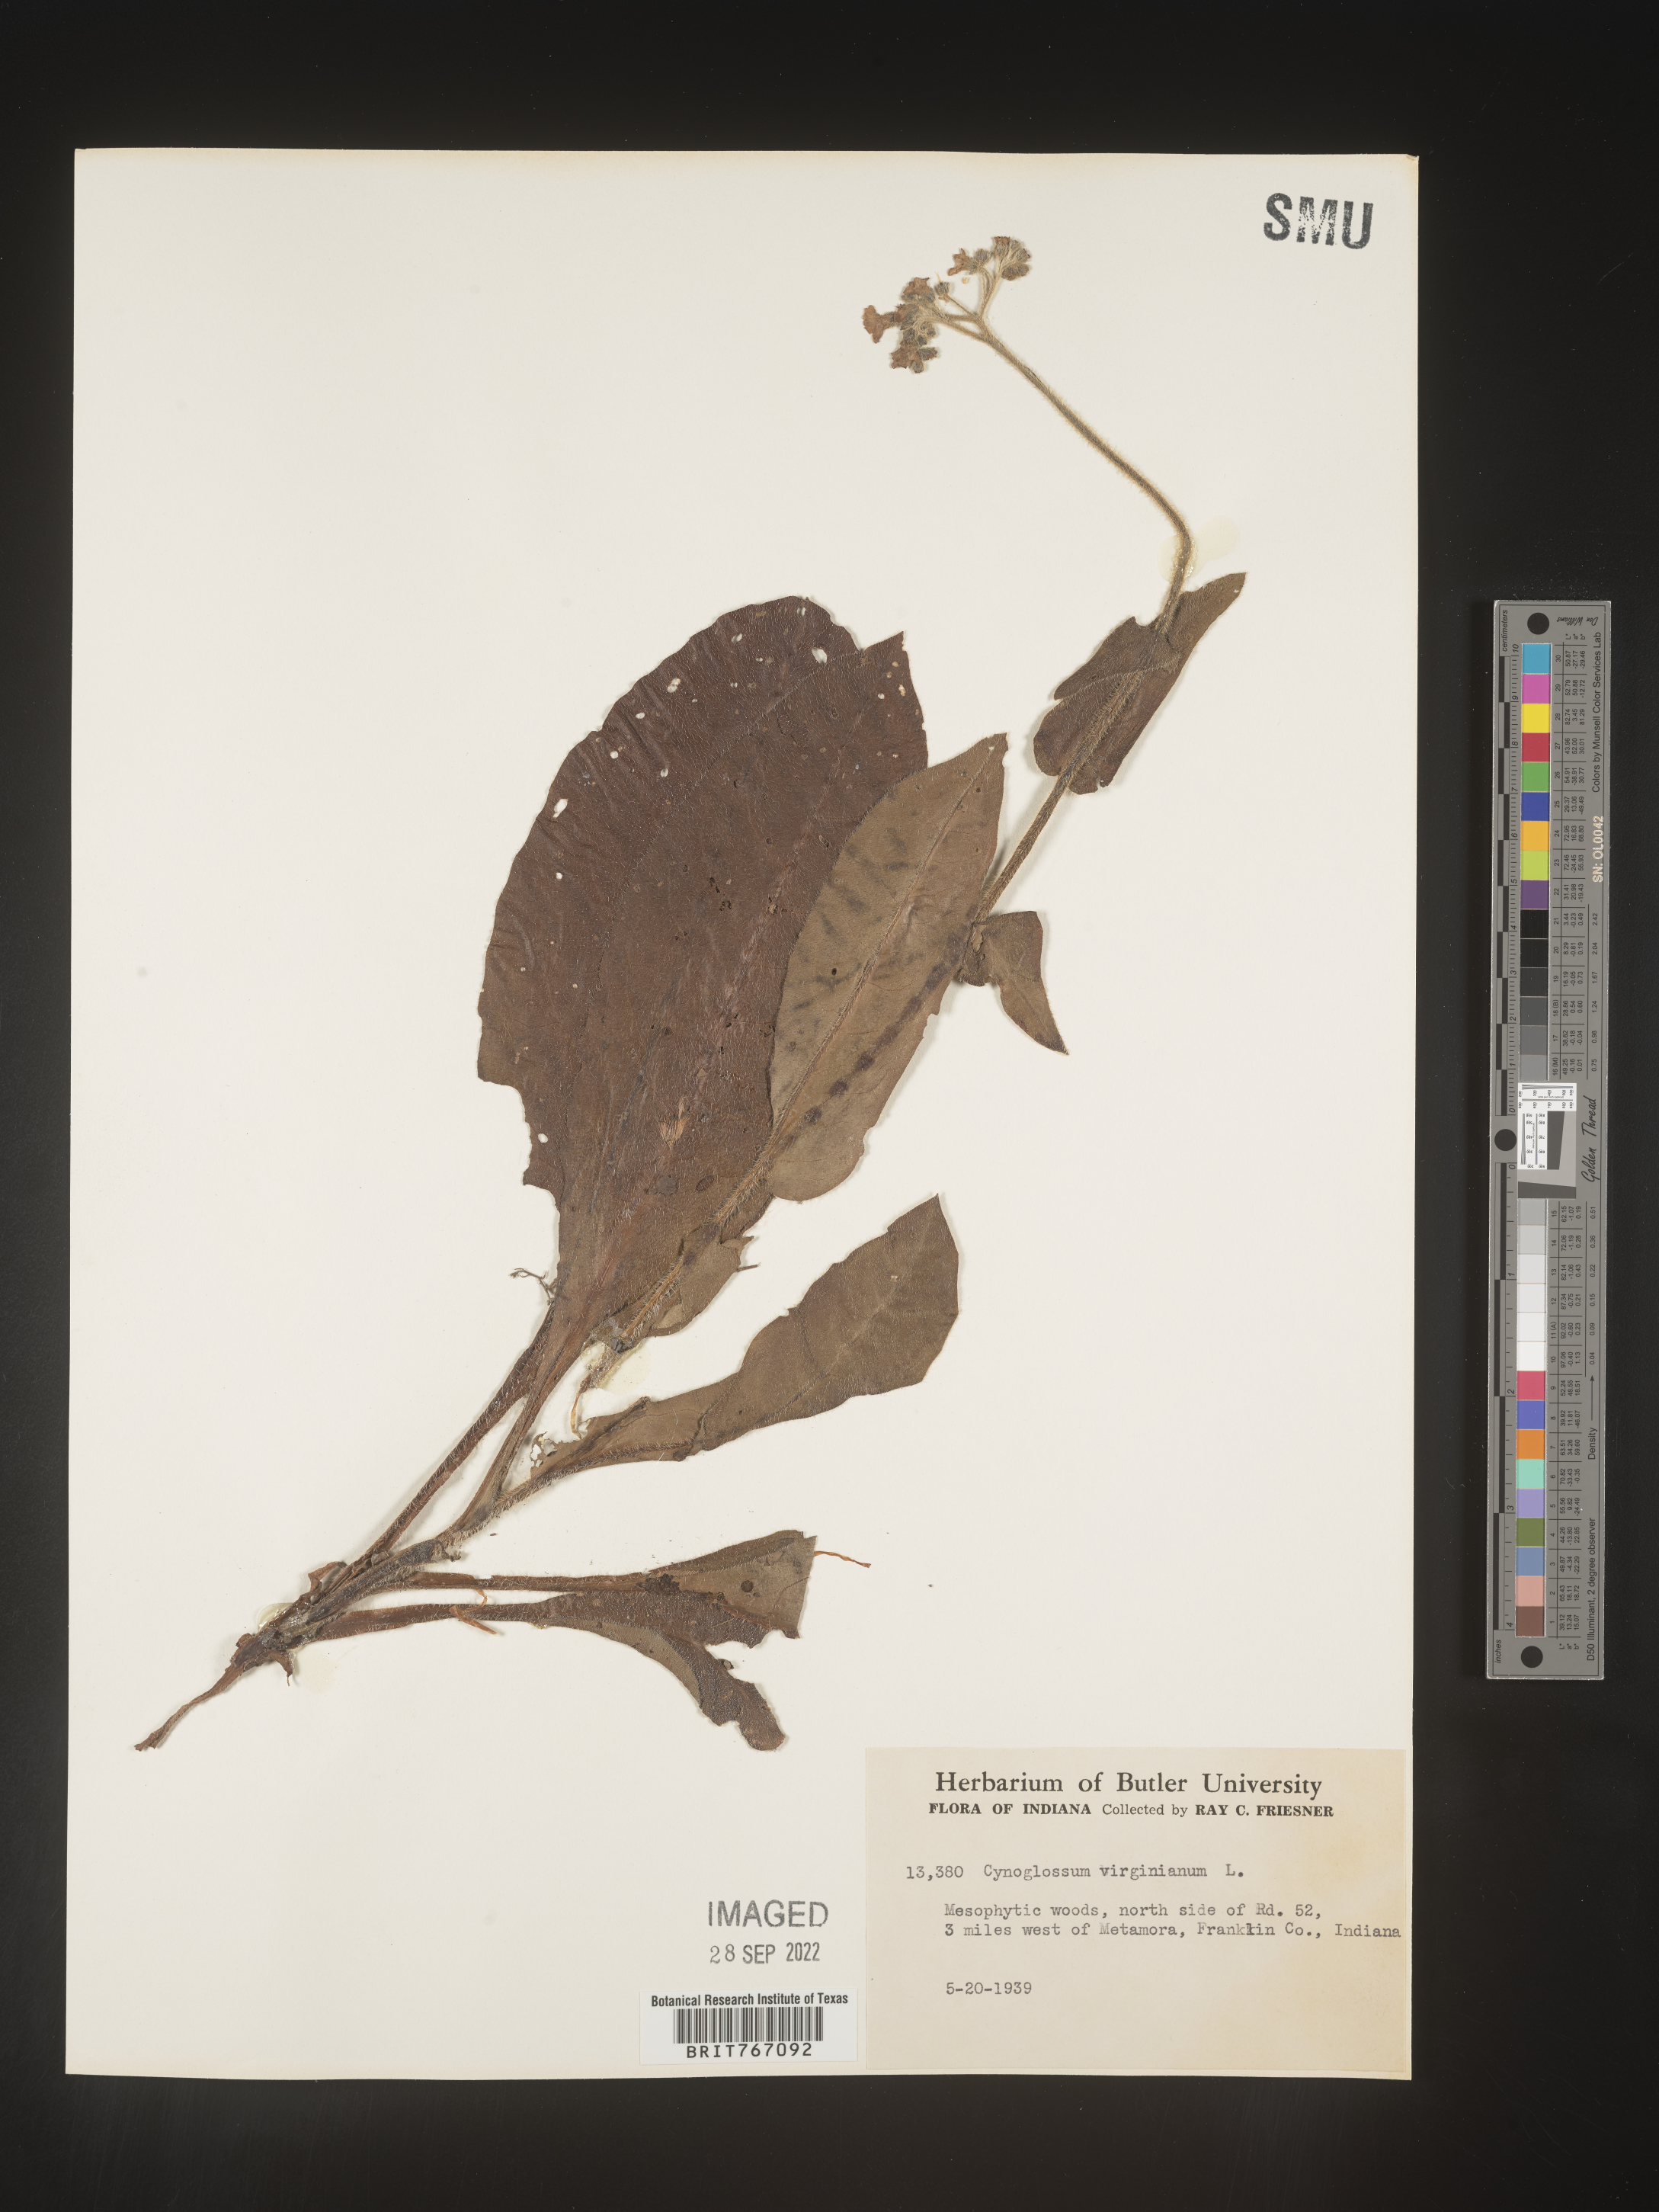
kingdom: Plantae
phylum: Tracheophyta
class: Magnoliopsida
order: Boraginales
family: Boraginaceae
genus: Andersonglossum
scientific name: Andersonglossum virginianum
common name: Wild comfrey
